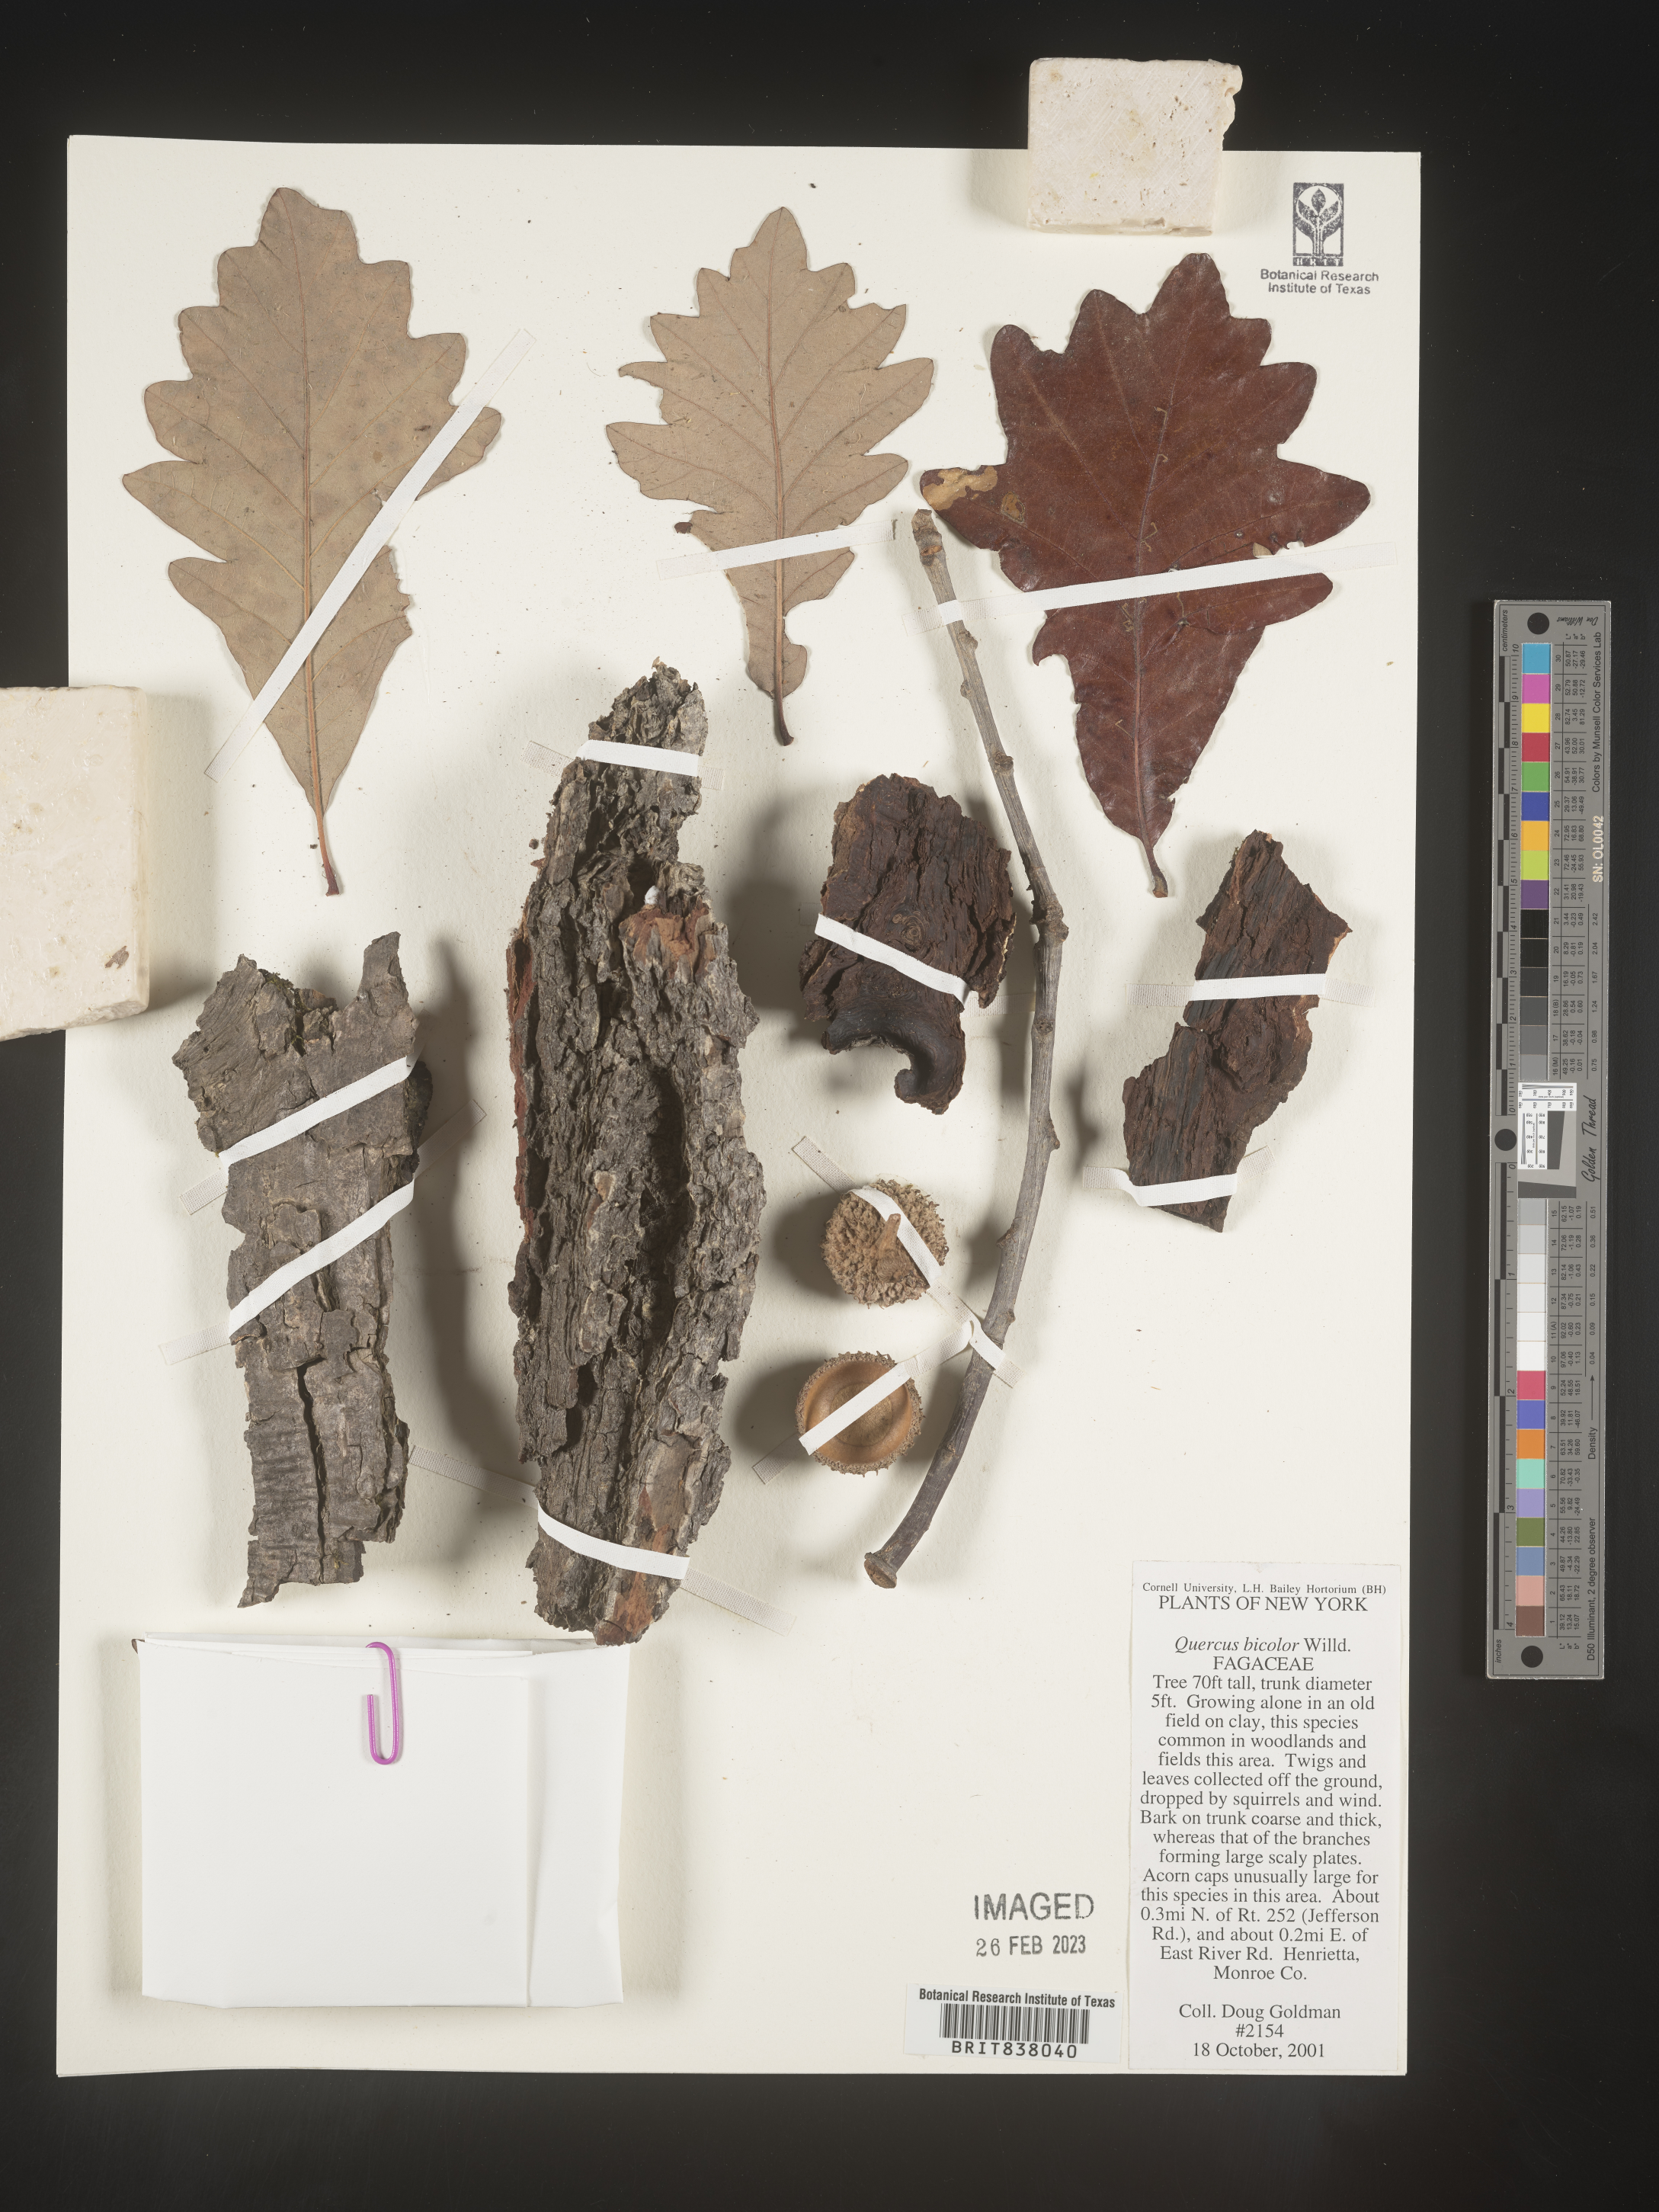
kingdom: Plantae
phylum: Tracheophyta
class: Magnoliopsida
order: Fagales
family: Fagaceae
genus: Quercus
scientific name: Quercus bicolor
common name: Swamp white oak
